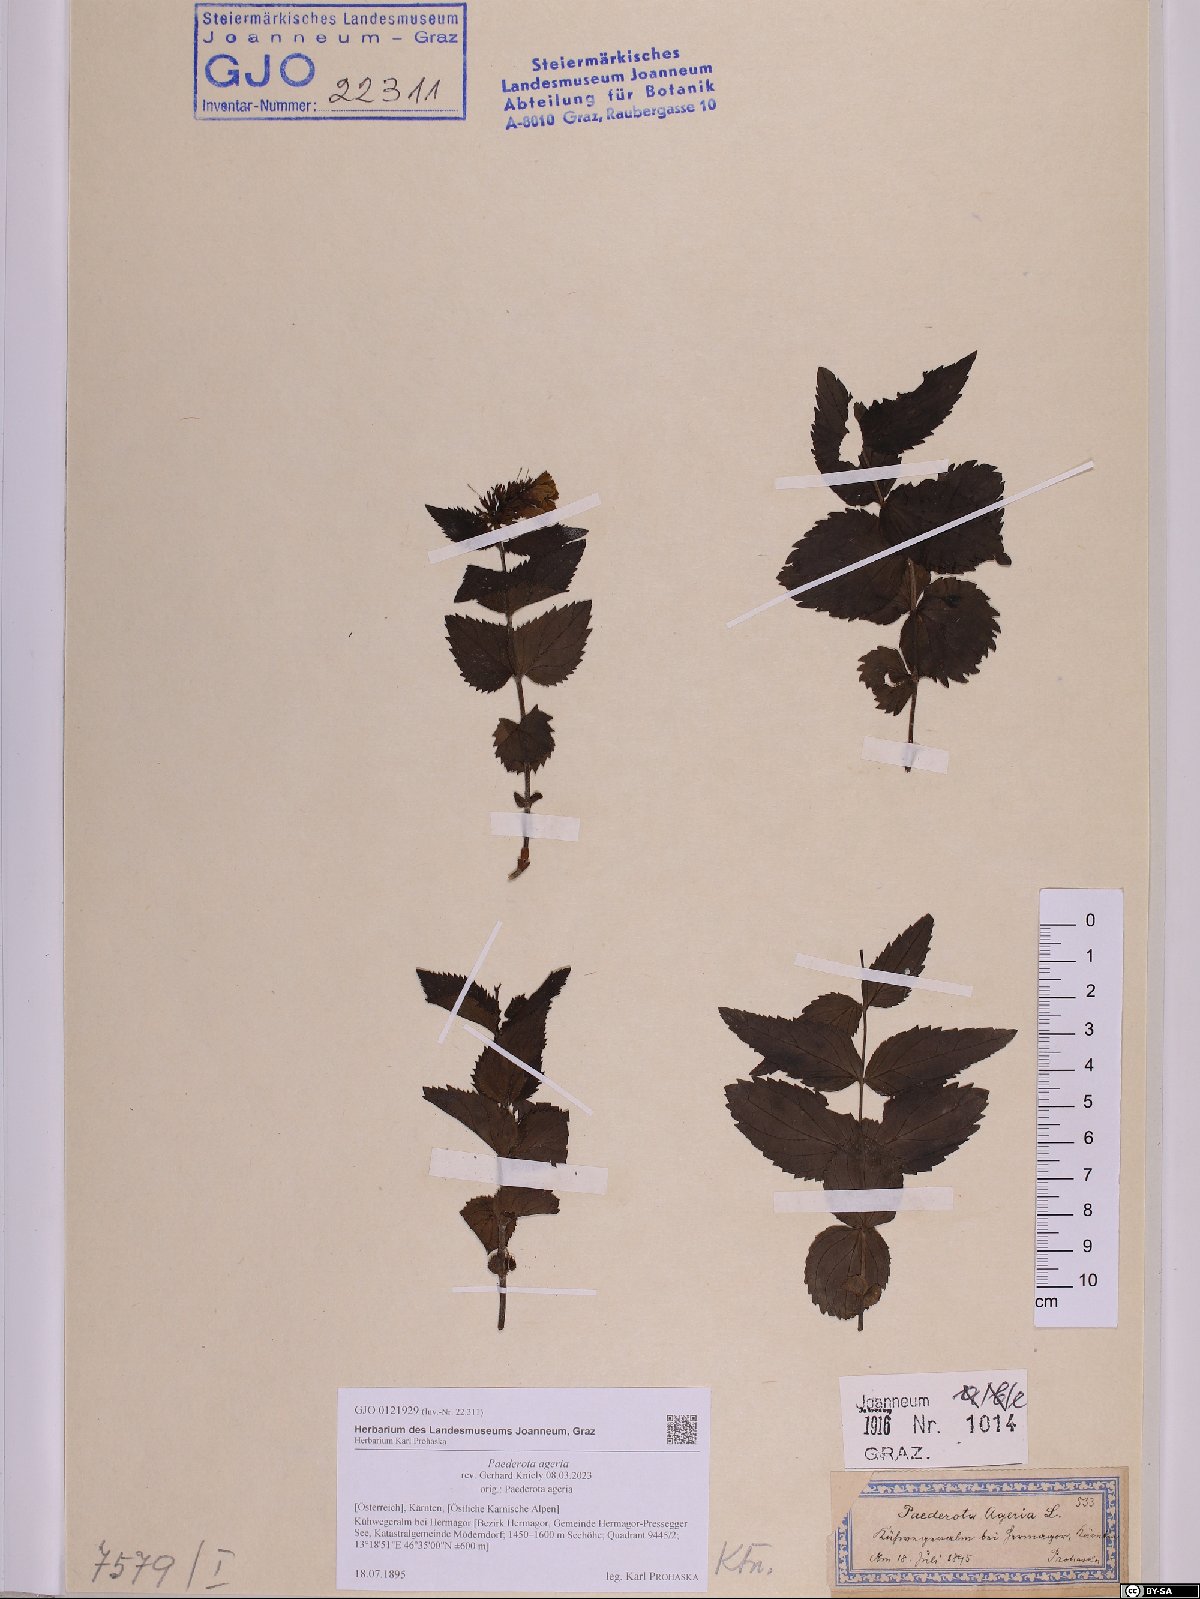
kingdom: Plantae
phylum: Tracheophyta
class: Magnoliopsida
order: Lamiales
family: Plantaginaceae
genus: Paederota
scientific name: Paederota lutea
